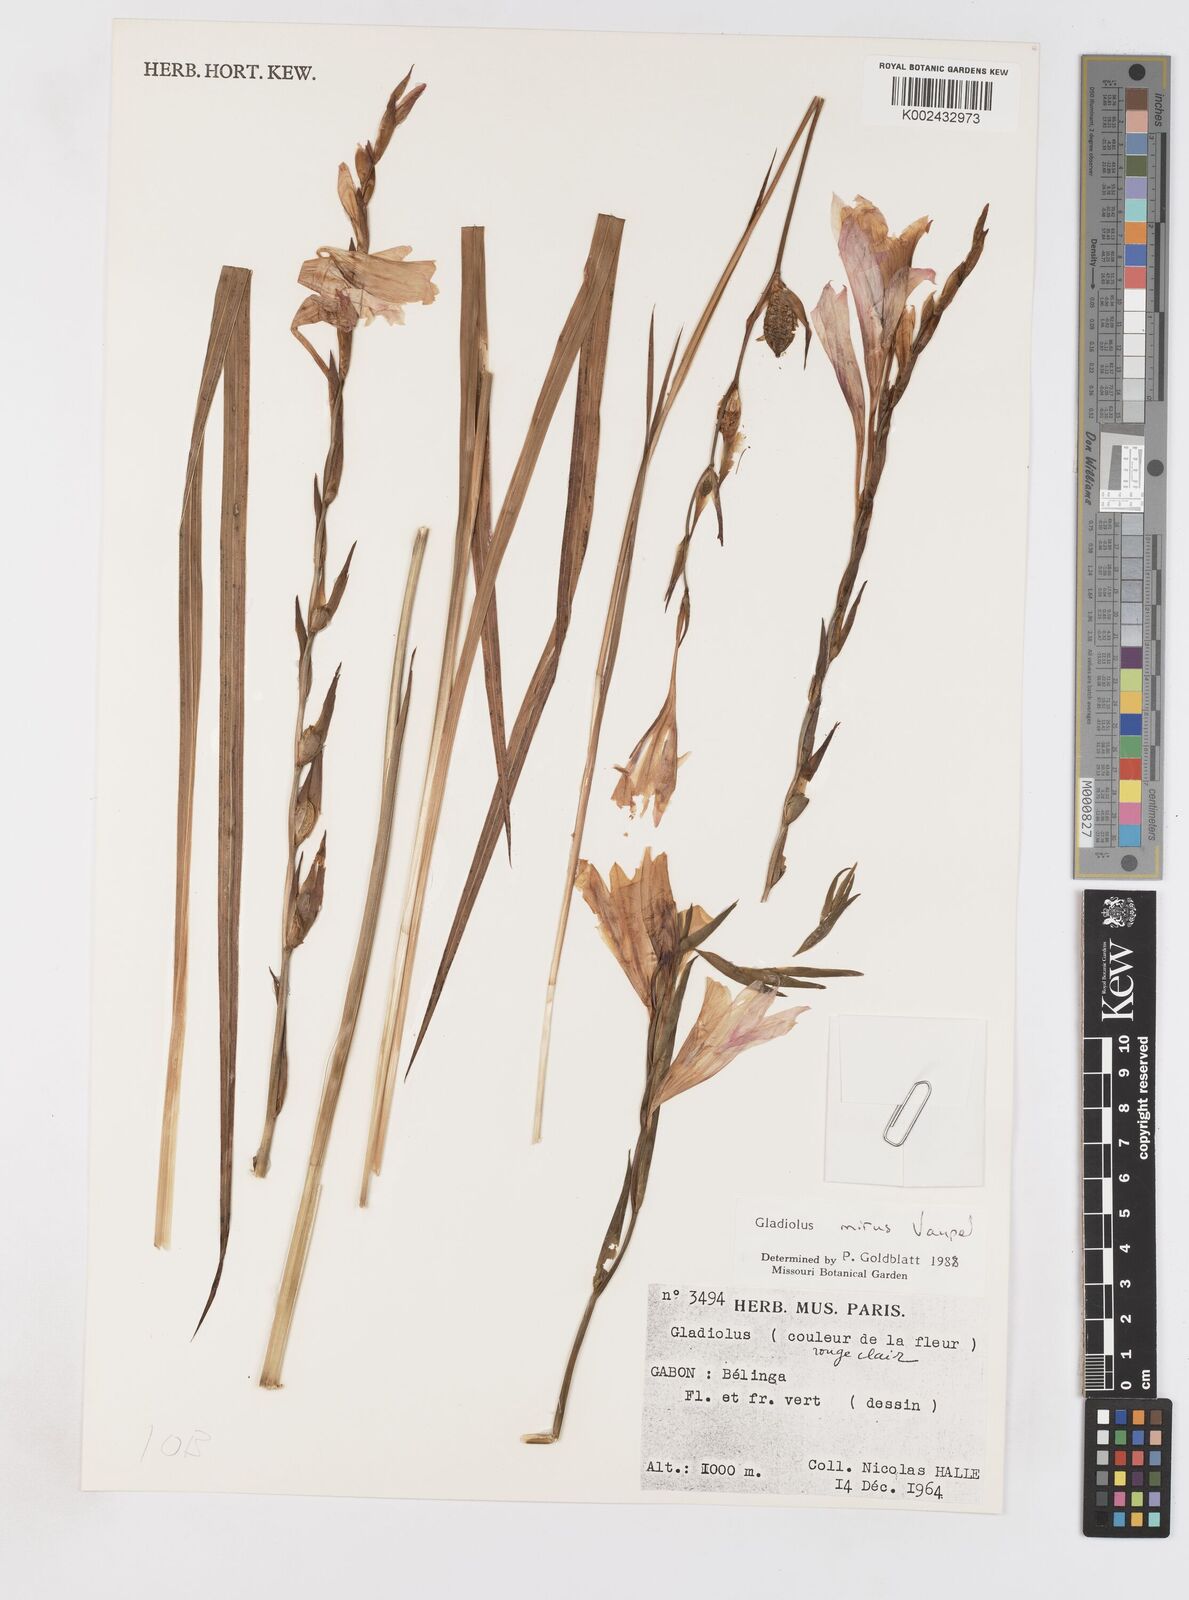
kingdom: Plantae
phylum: Tracheophyta
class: Liliopsida
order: Asparagales
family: Iridaceae
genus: Gladiolus
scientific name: Gladiolus mirus
